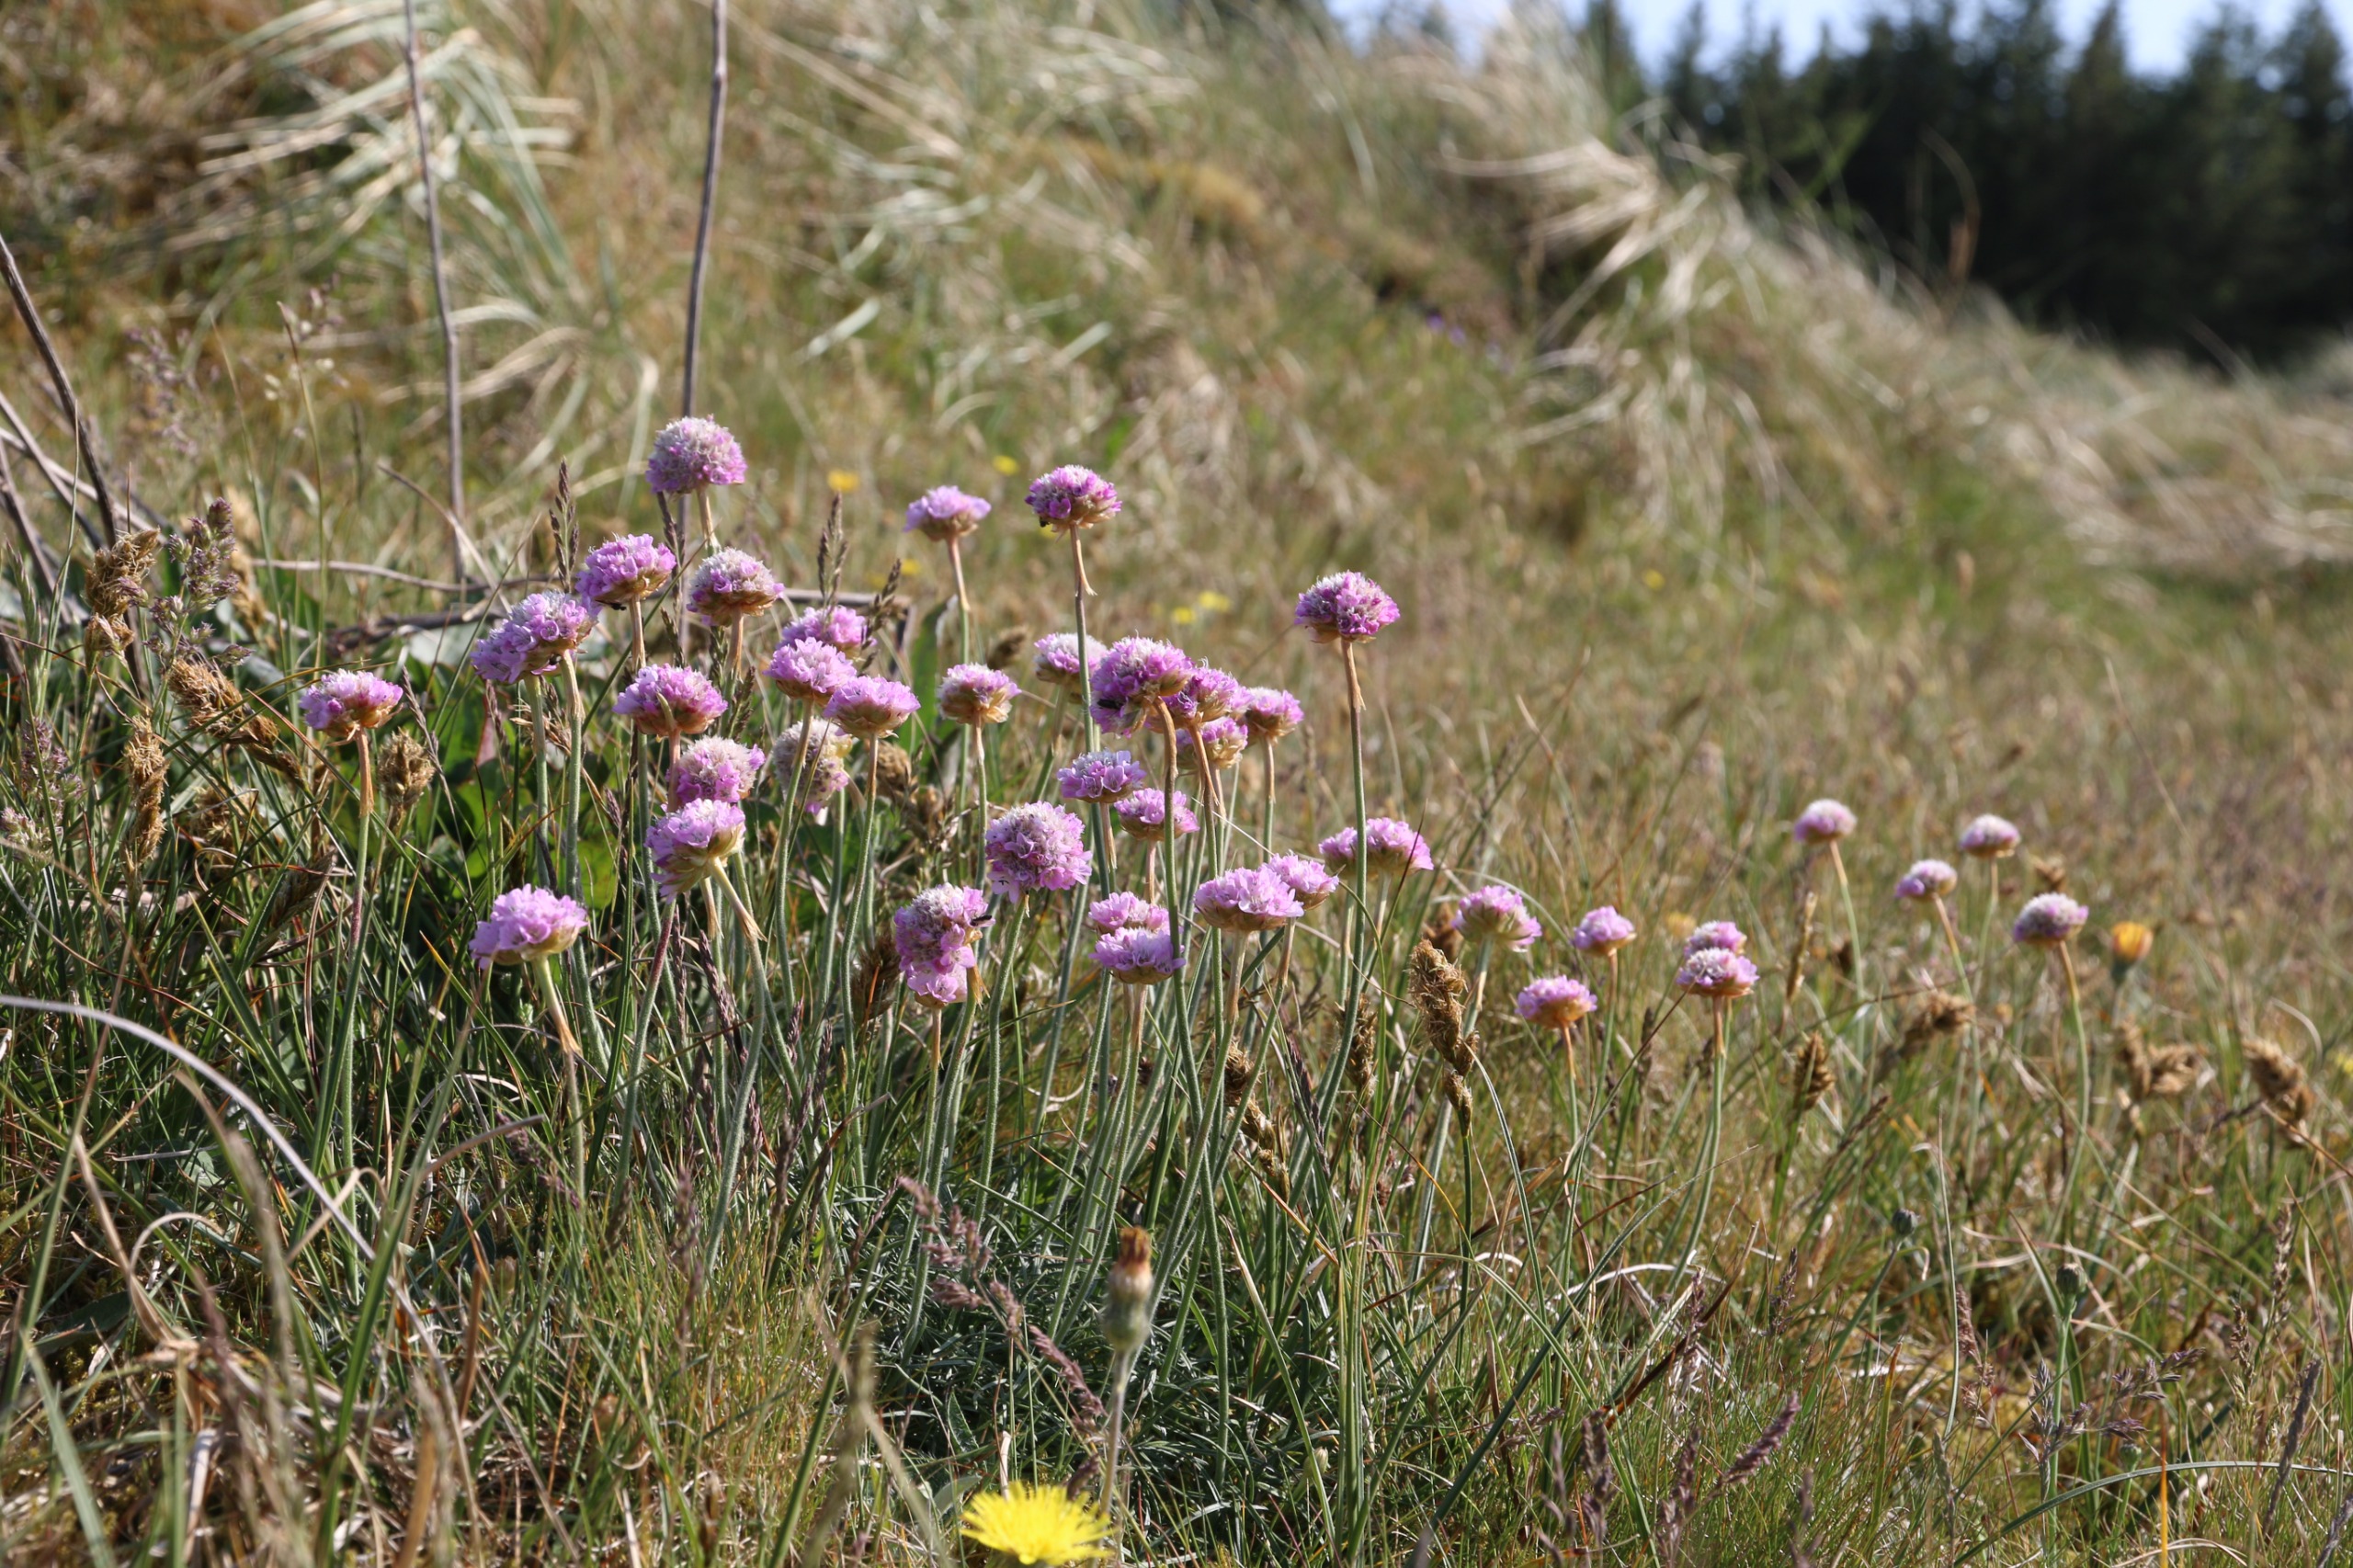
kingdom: Plantae
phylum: Tracheophyta
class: Magnoliopsida
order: Caryophyllales
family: Plumbaginaceae
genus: Armeria
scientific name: Armeria maritima
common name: Engelskgræs
